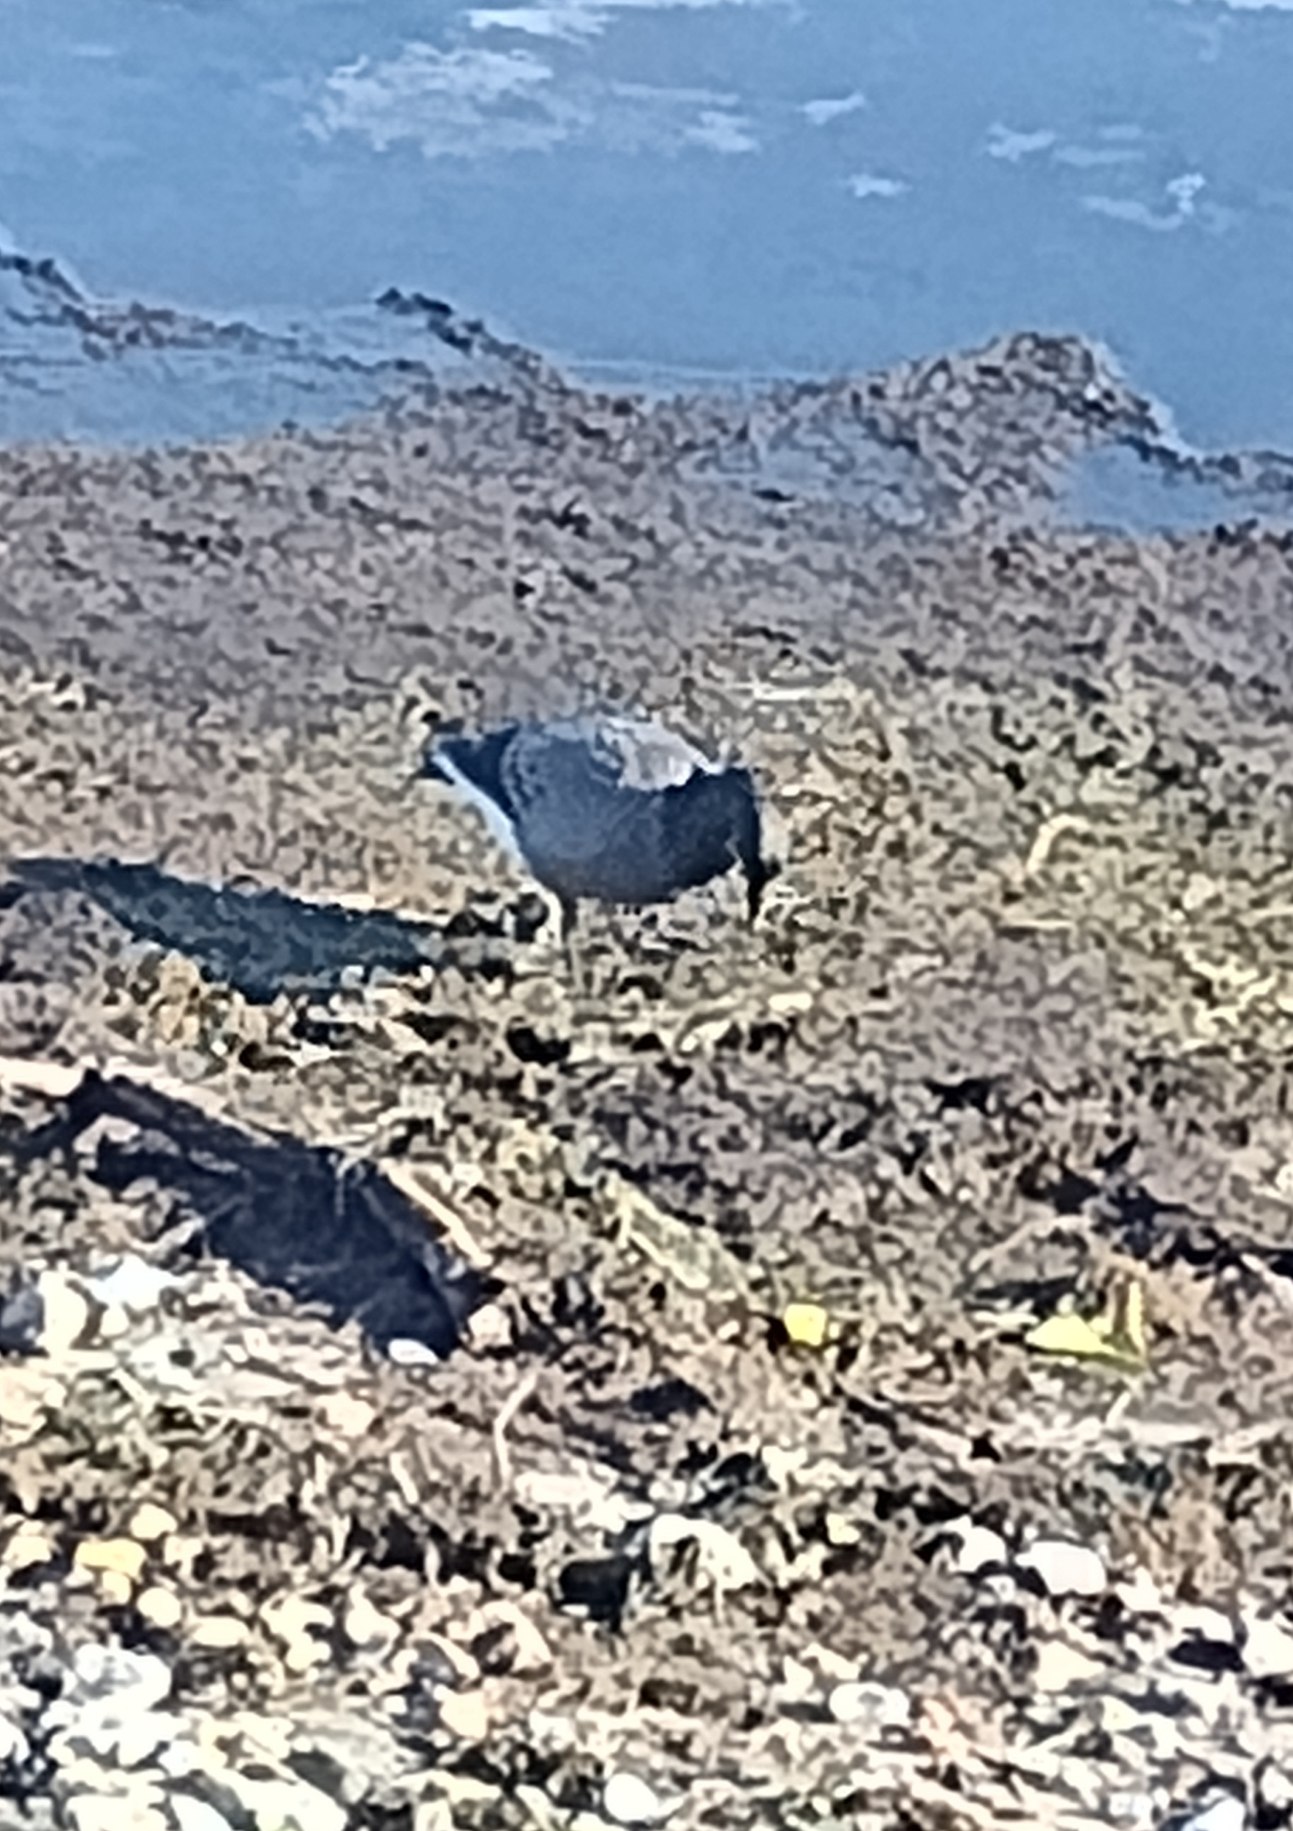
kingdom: Animalia
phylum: Chordata
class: Aves
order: Anseriformes
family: Anatidae
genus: Branta
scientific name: Branta bernicla
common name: Knortegås
